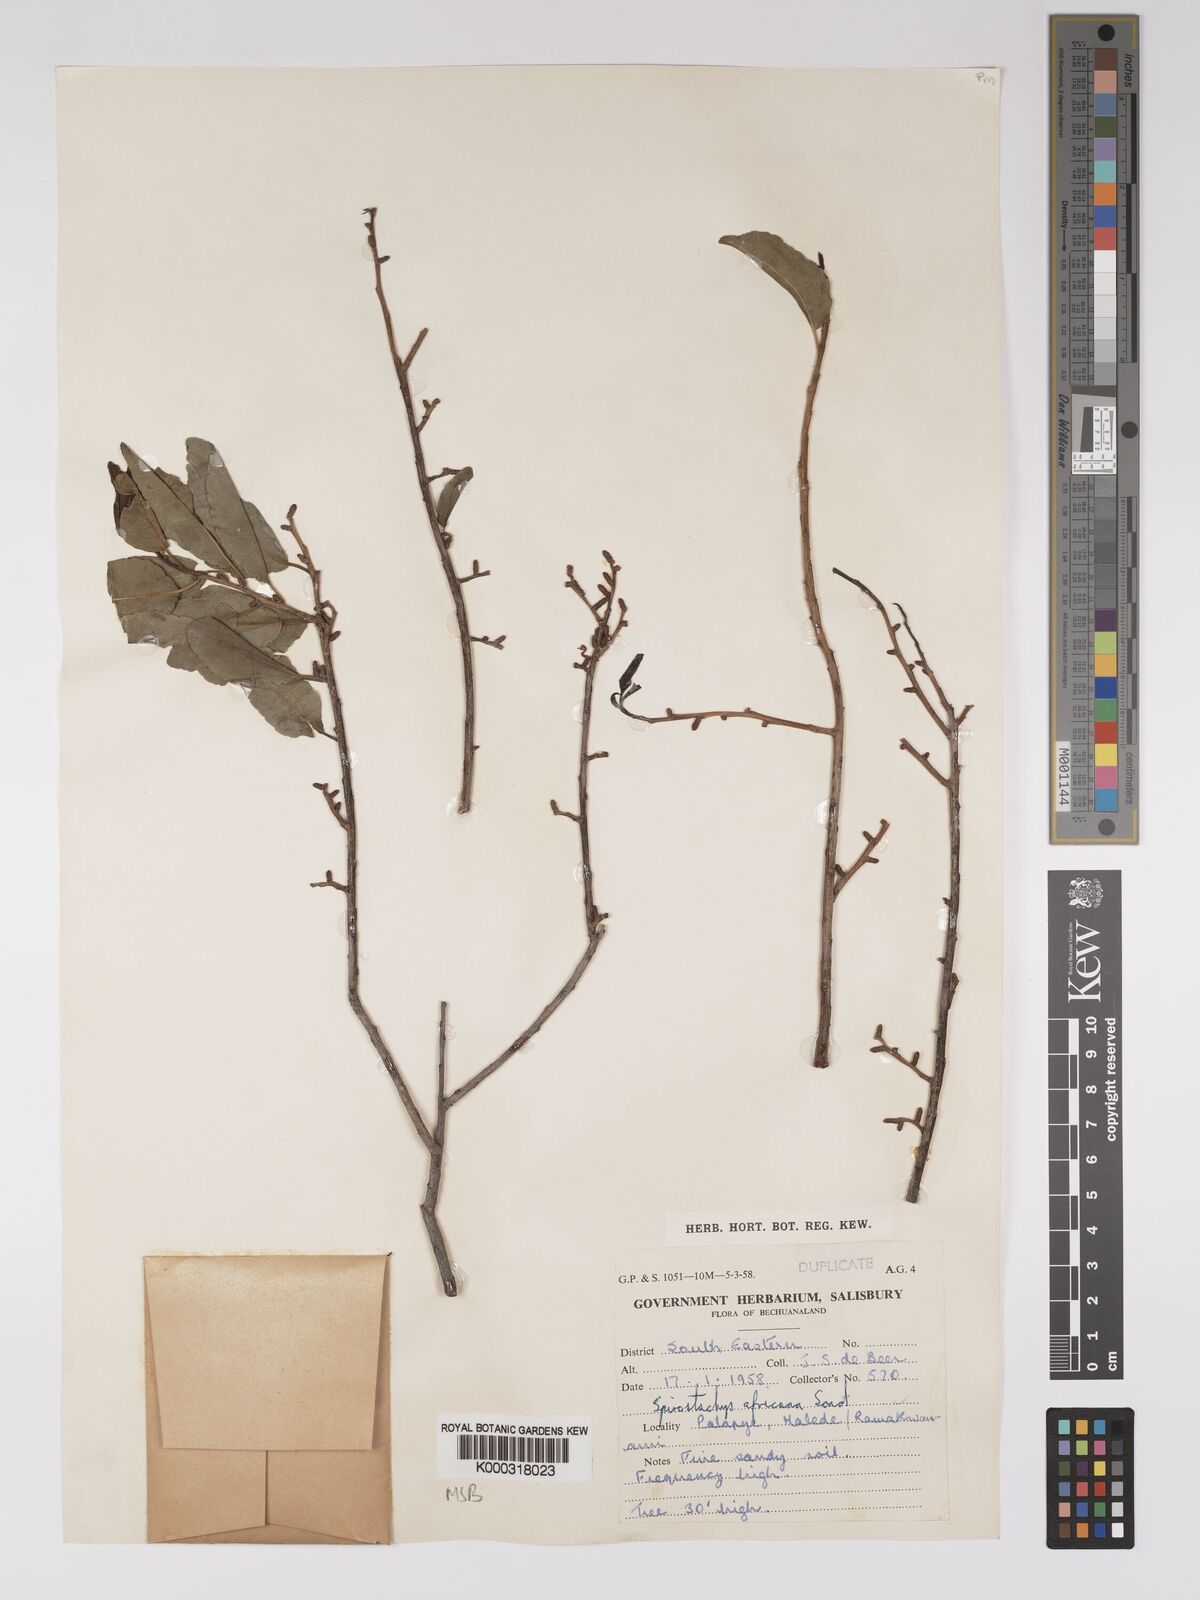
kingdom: Plantae
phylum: Tracheophyta
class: Magnoliopsida
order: Malpighiales
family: Euphorbiaceae
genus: Spirostachys
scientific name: Spirostachys africana
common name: Tamboti
